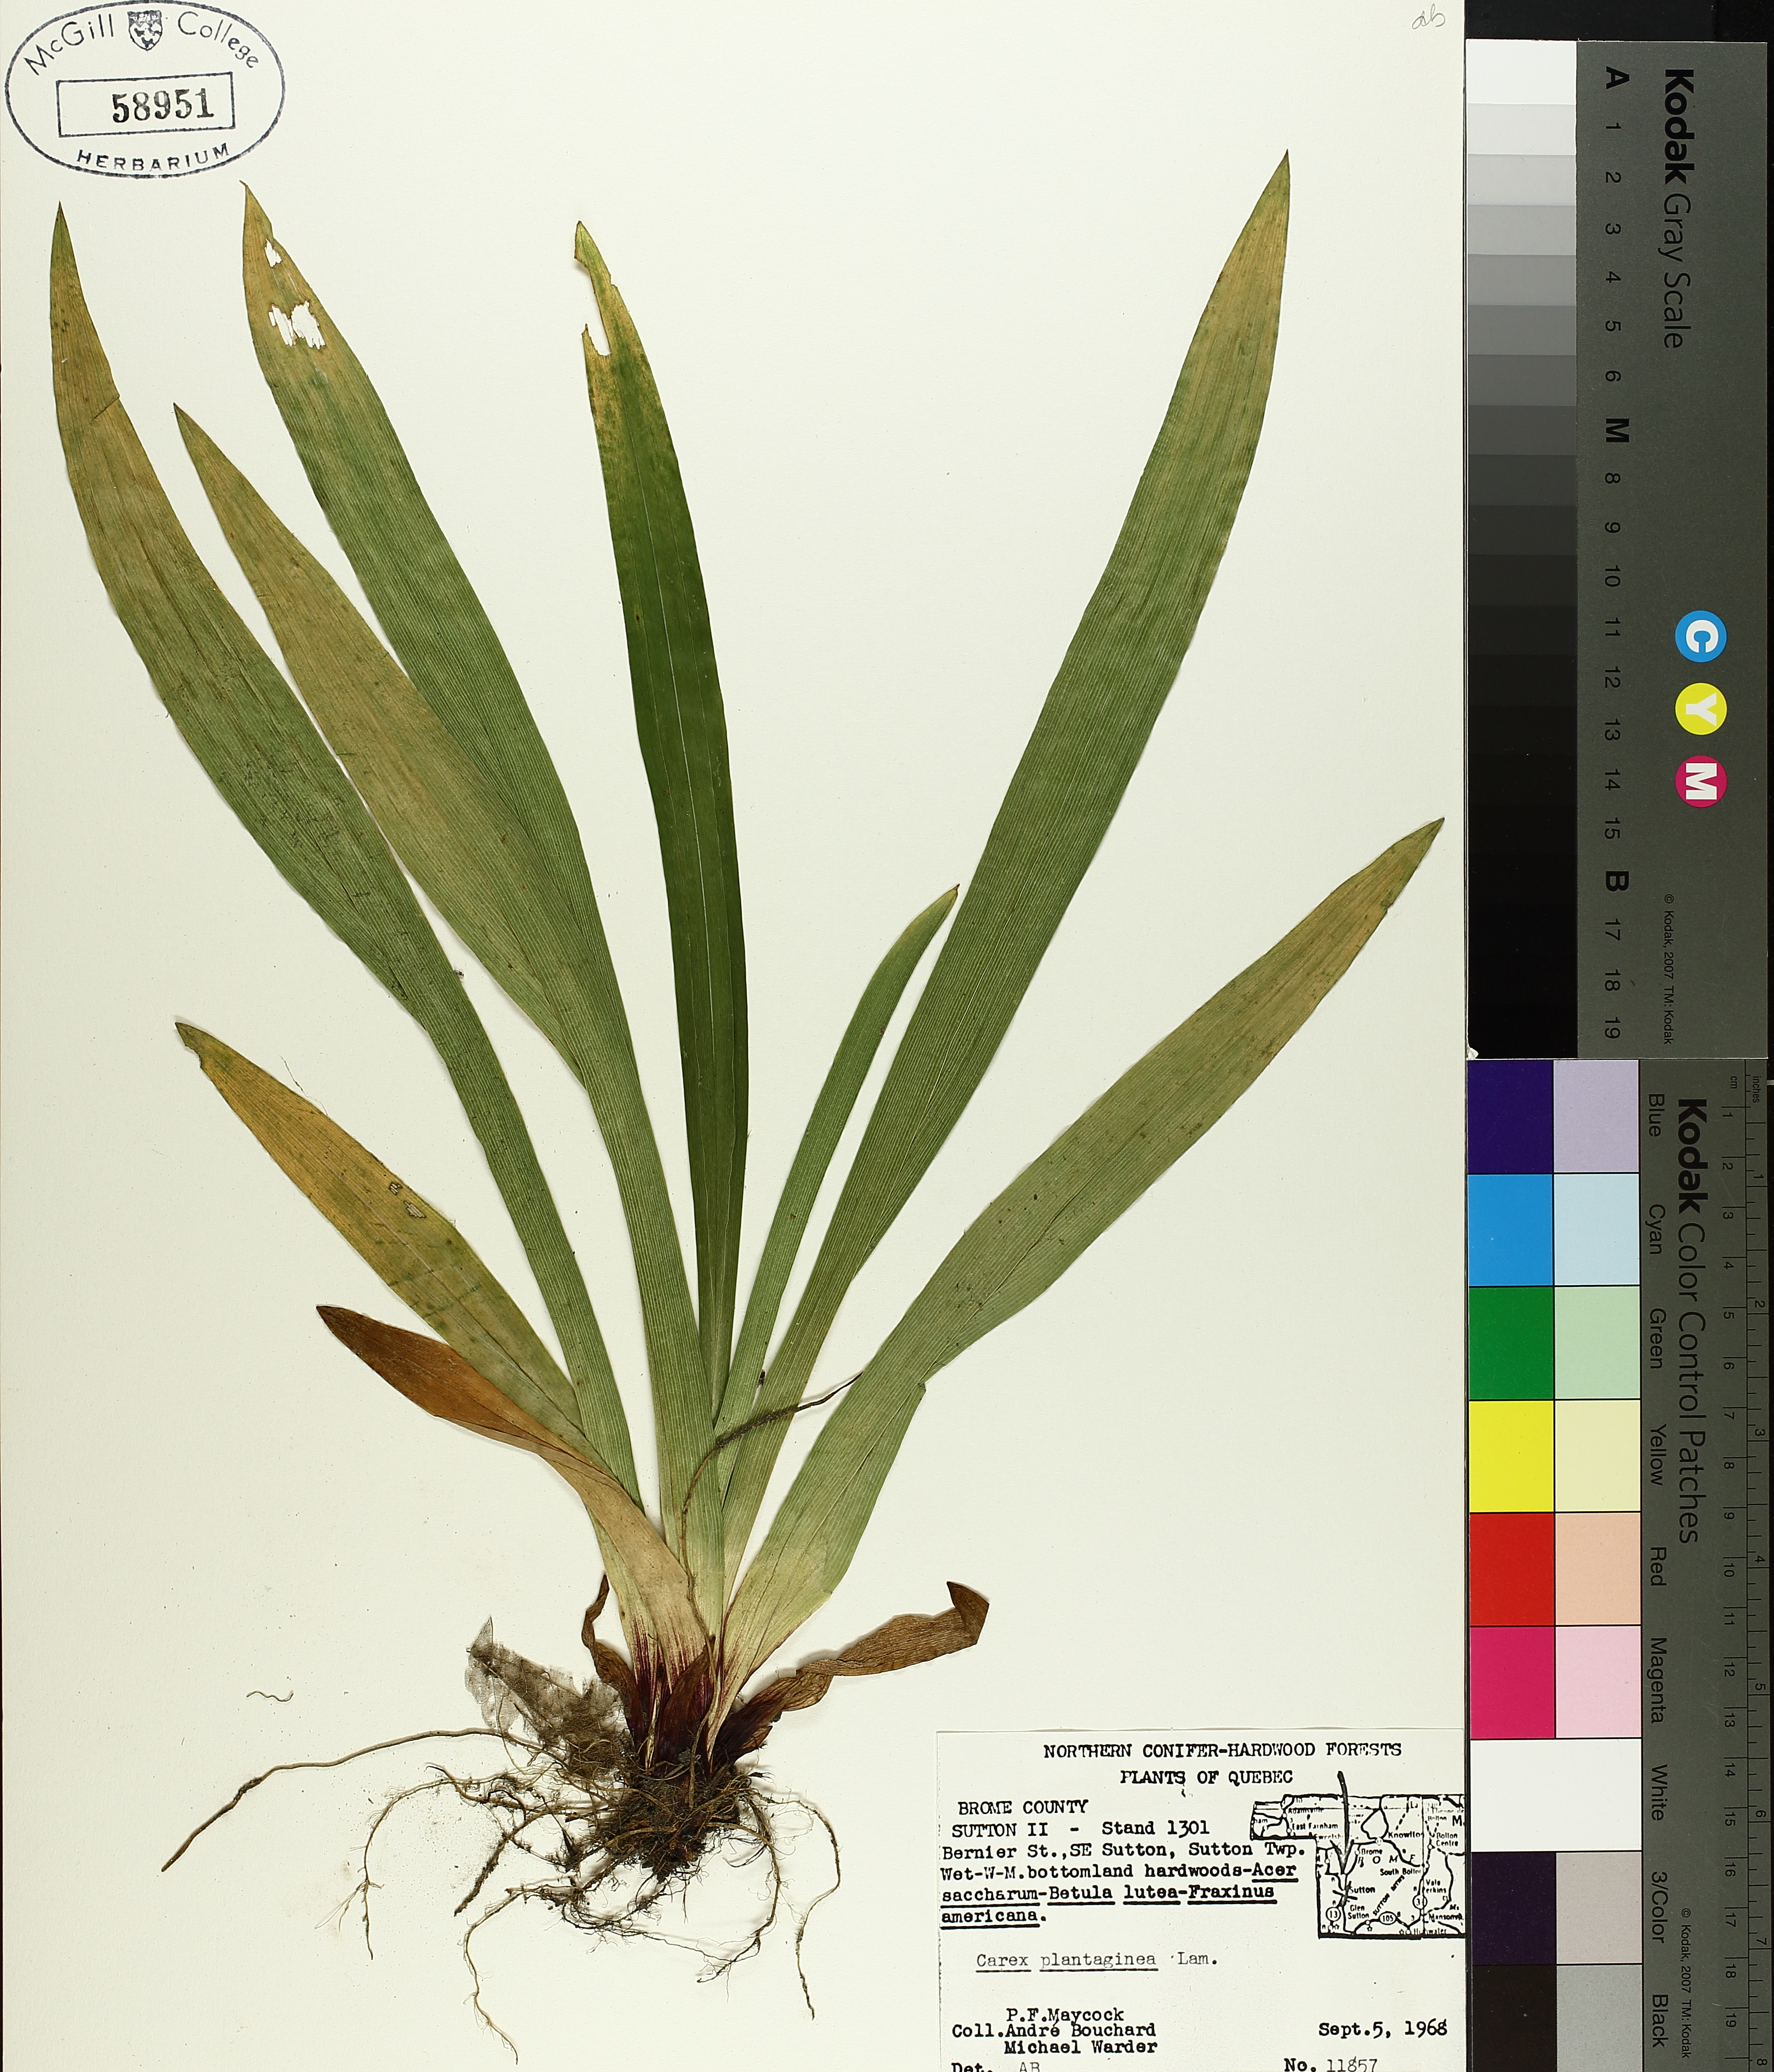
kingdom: Plantae
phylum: Tracheophyta
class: Liliopsida
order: Poales
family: Cyperaceae
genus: Carex
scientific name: Carex plantaginea
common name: Plantain-leaved sedge
